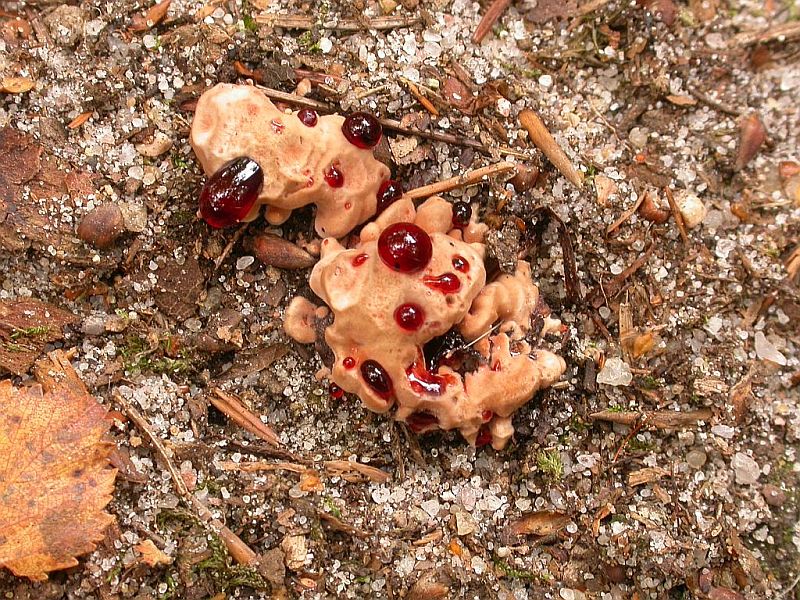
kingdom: Fungi
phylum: Basidiomycota
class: Agaricomycetes
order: Thelephorales
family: Bankeraceae
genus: Hydnellum
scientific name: Hydnellum concrescens
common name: Zoned tooth
